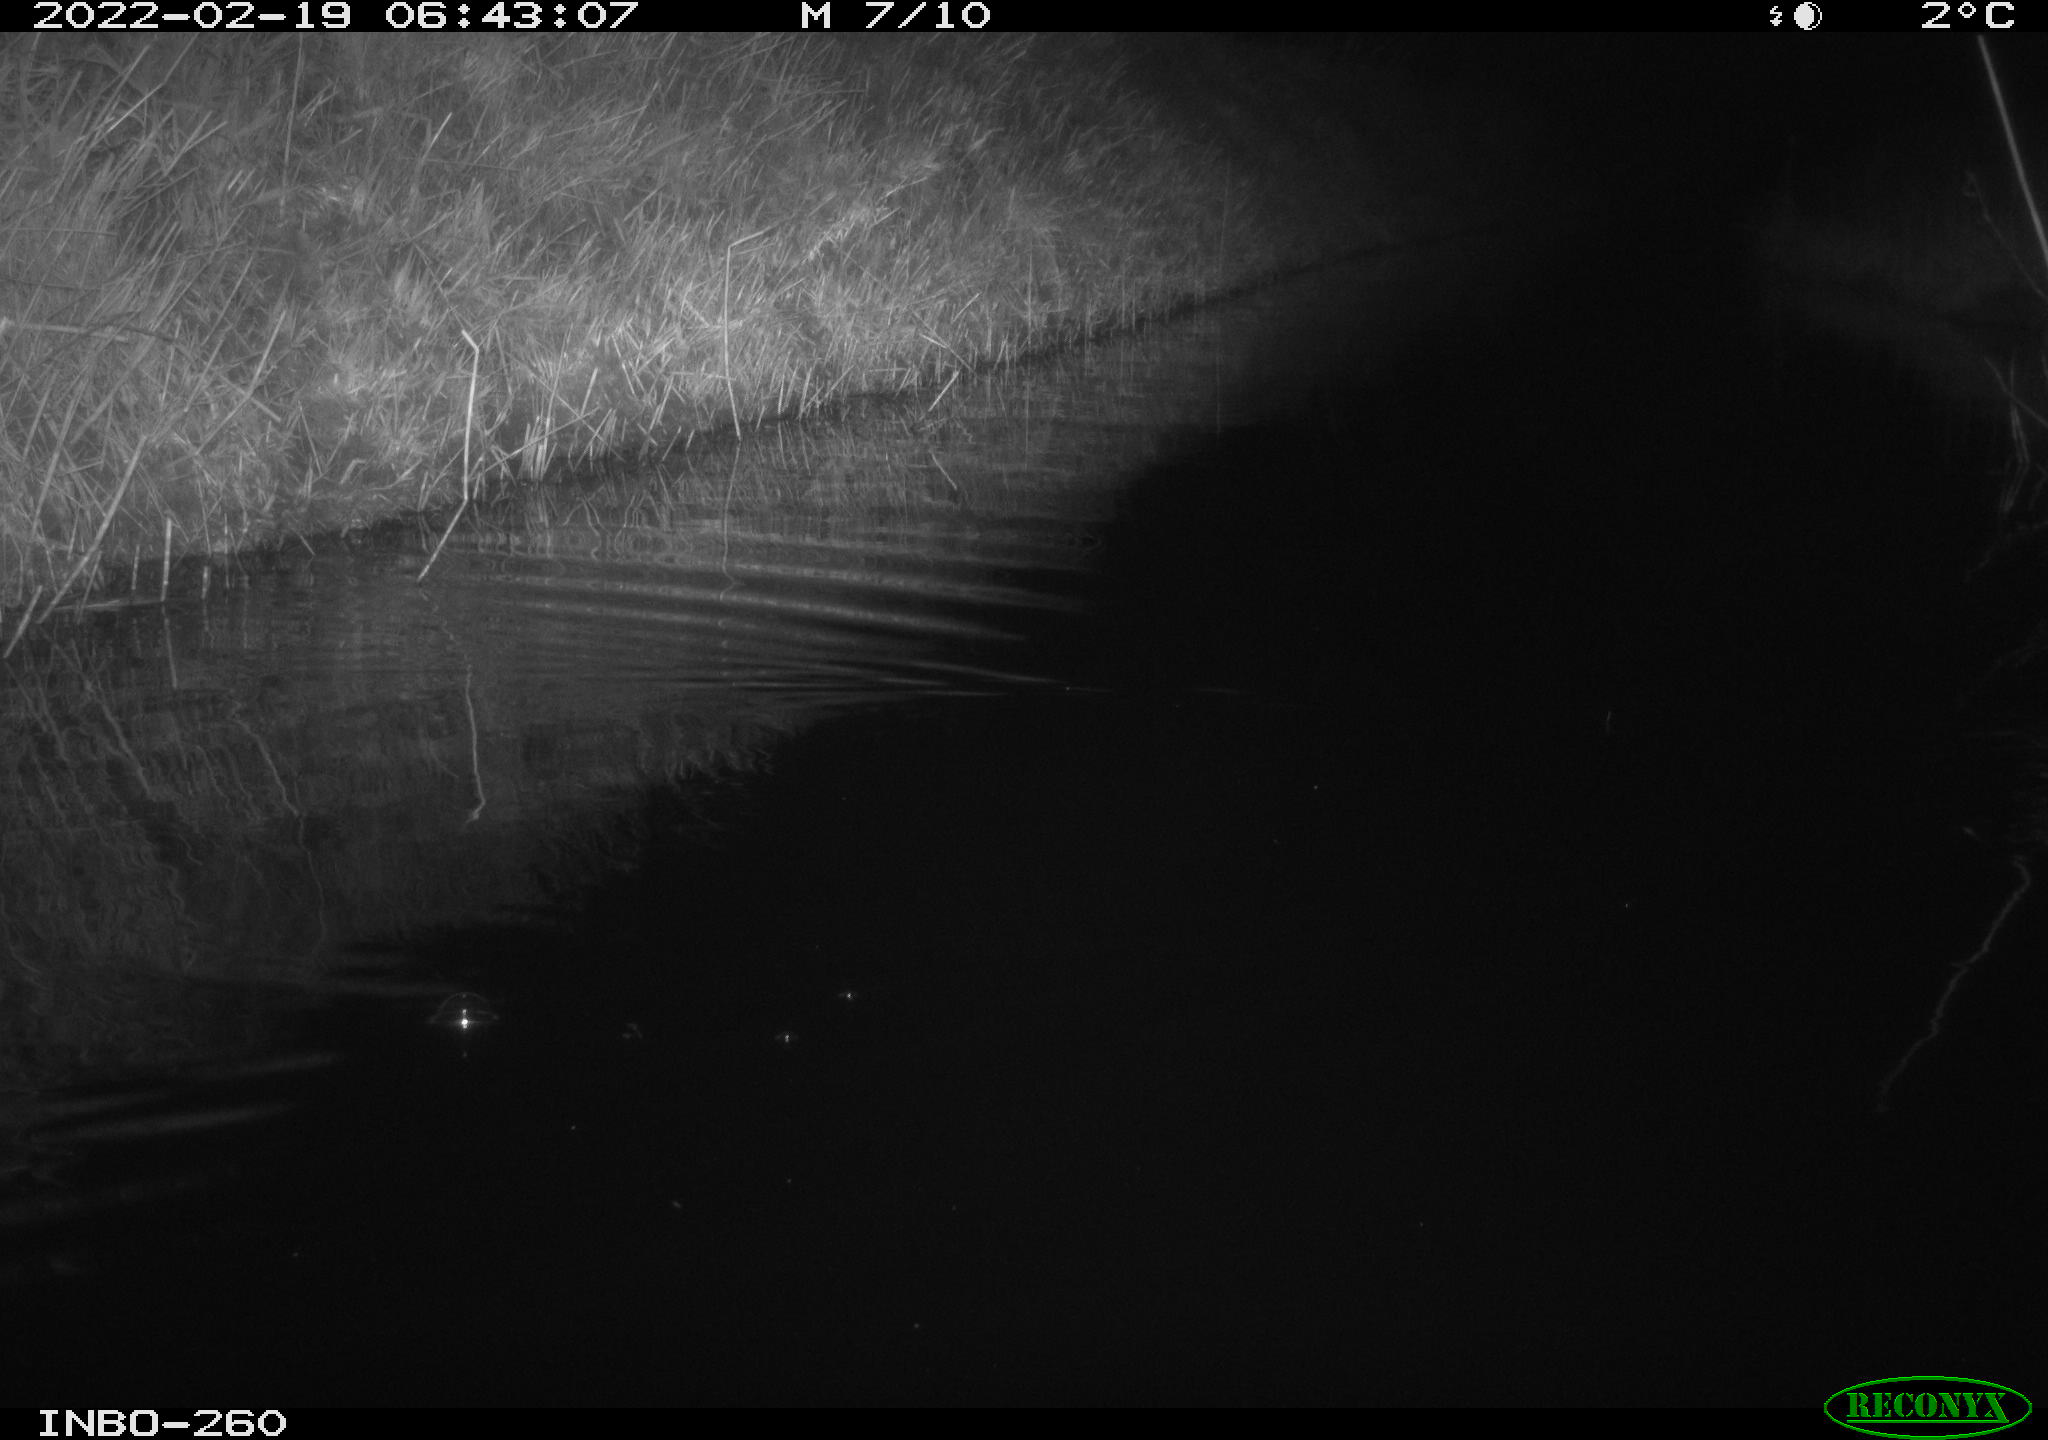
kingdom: Animalia
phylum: Chordata
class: Mammalia
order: Rodentia
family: Muridae
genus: Rattus
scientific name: Rattus norvegicus
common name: Brown rat
